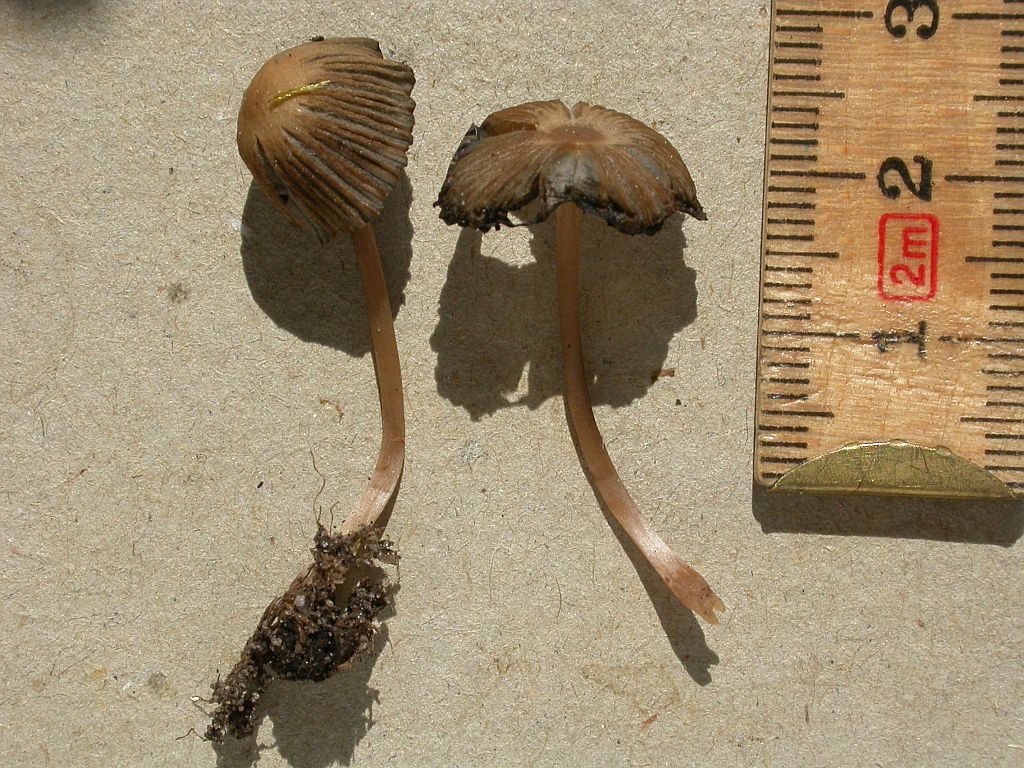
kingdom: Fungi
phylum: Basidiomycota
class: Agaricomycetes
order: Agaricales
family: Psathyrellaceae
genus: Parasola
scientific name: Parasola schroeteri
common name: bredsporet hjulhat
